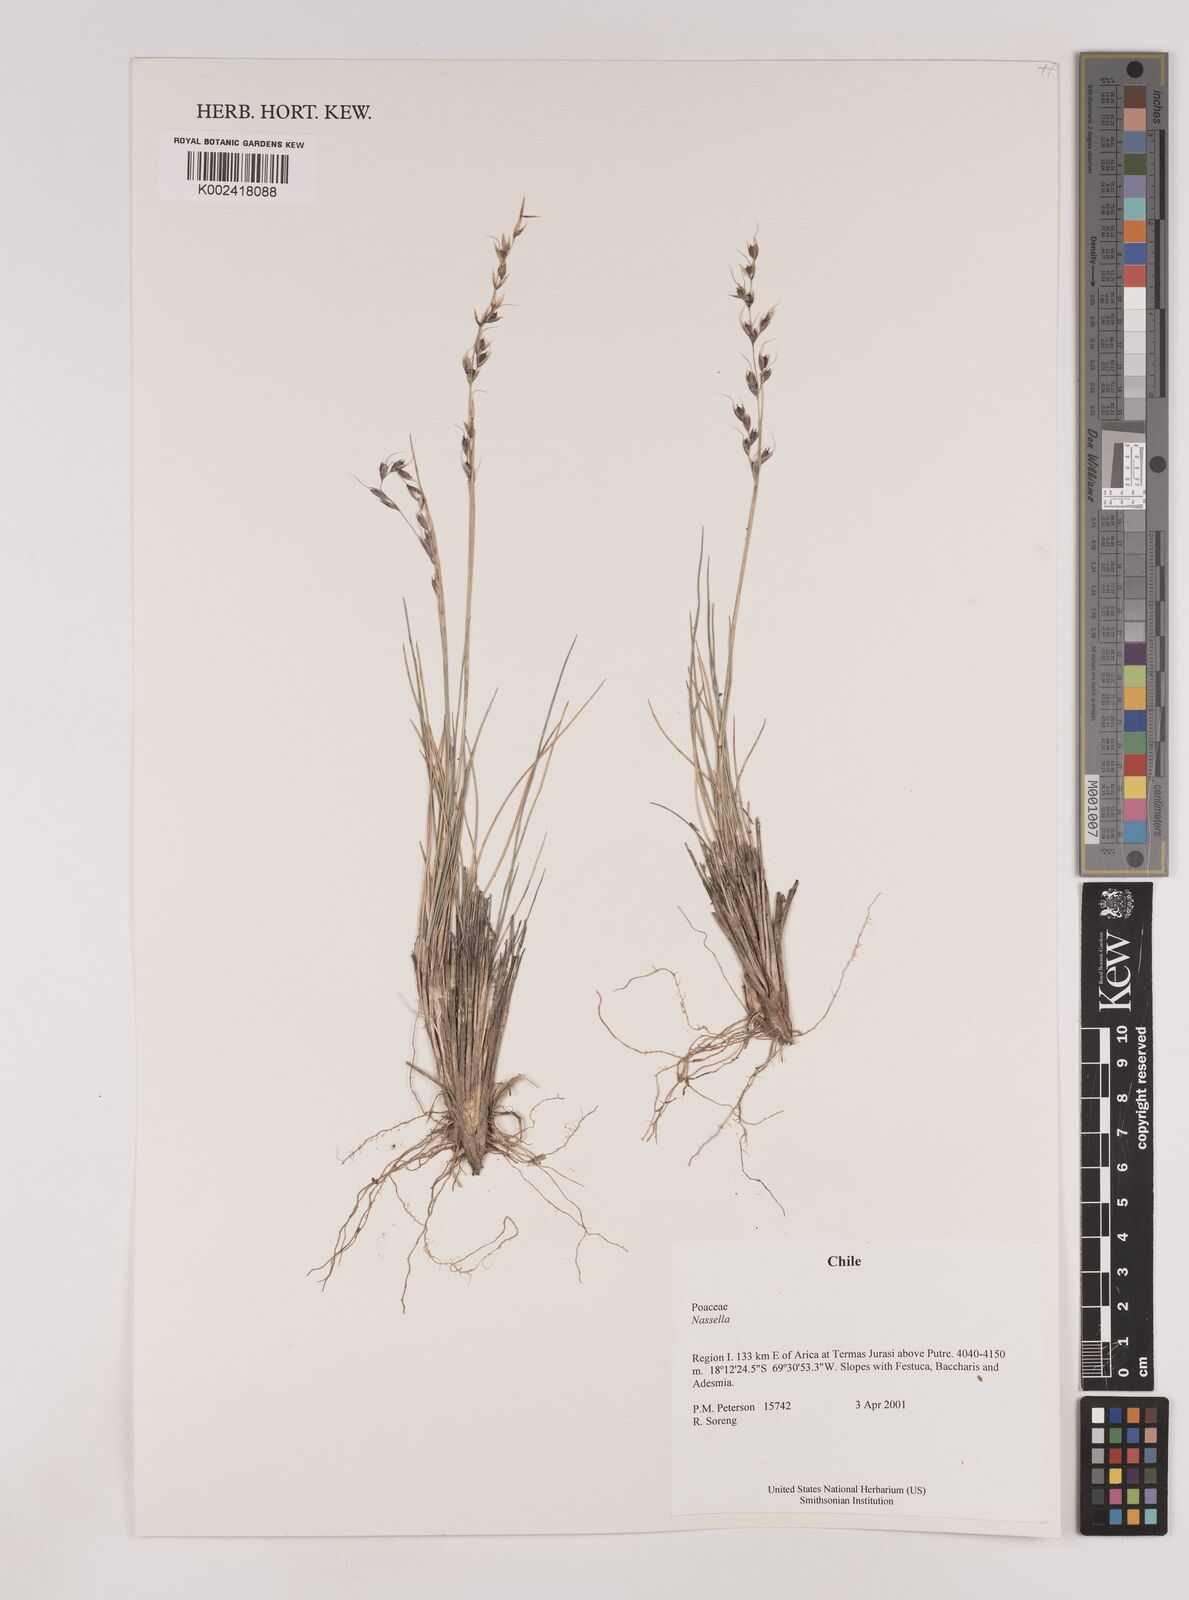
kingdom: Plantae
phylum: Tracheophyta
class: Liliopsida
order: Poales
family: Poaceae
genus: Nassella
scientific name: Nassella
